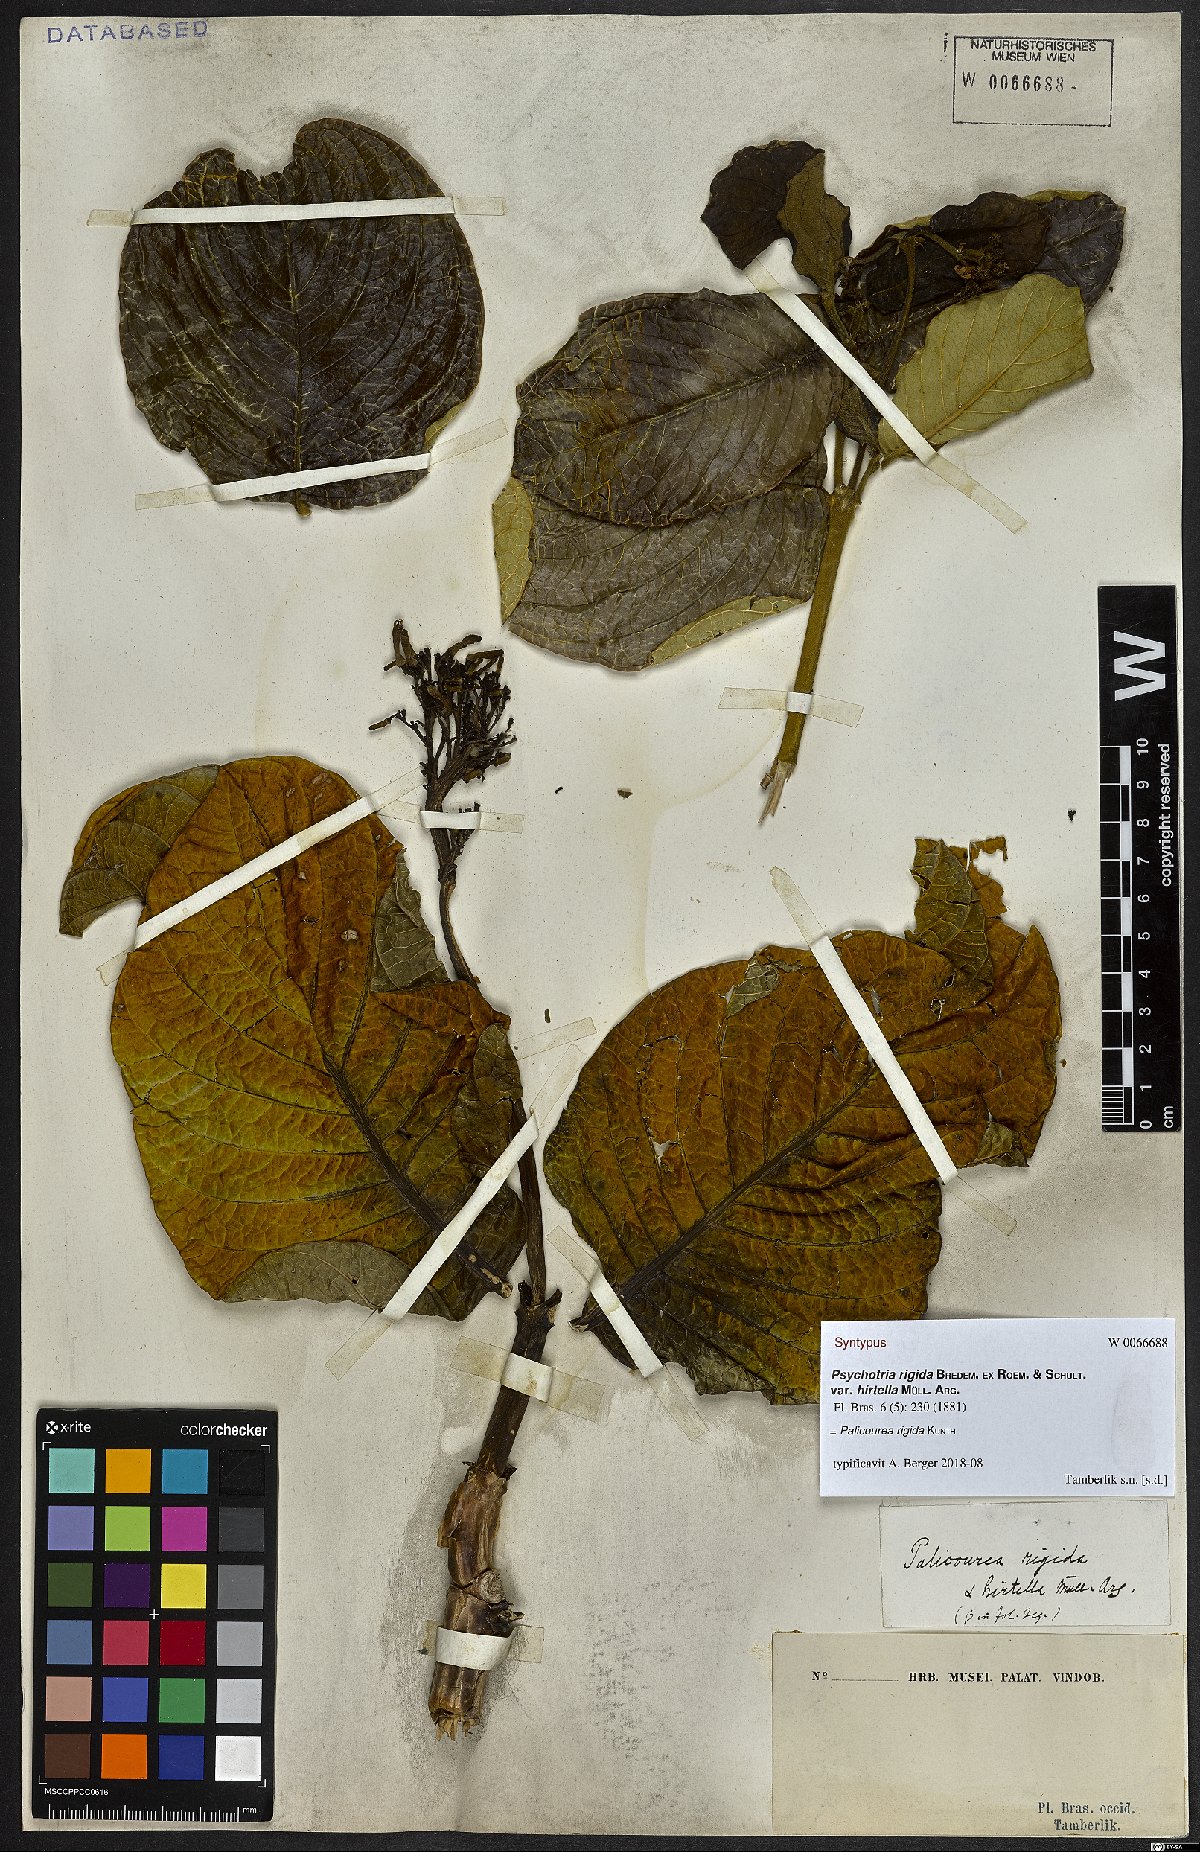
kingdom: Plantae
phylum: Tracheophyta
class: Magnoliopsida
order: Gentianales
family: Rubiaceae
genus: Palicourea
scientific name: Palicourea rigida
